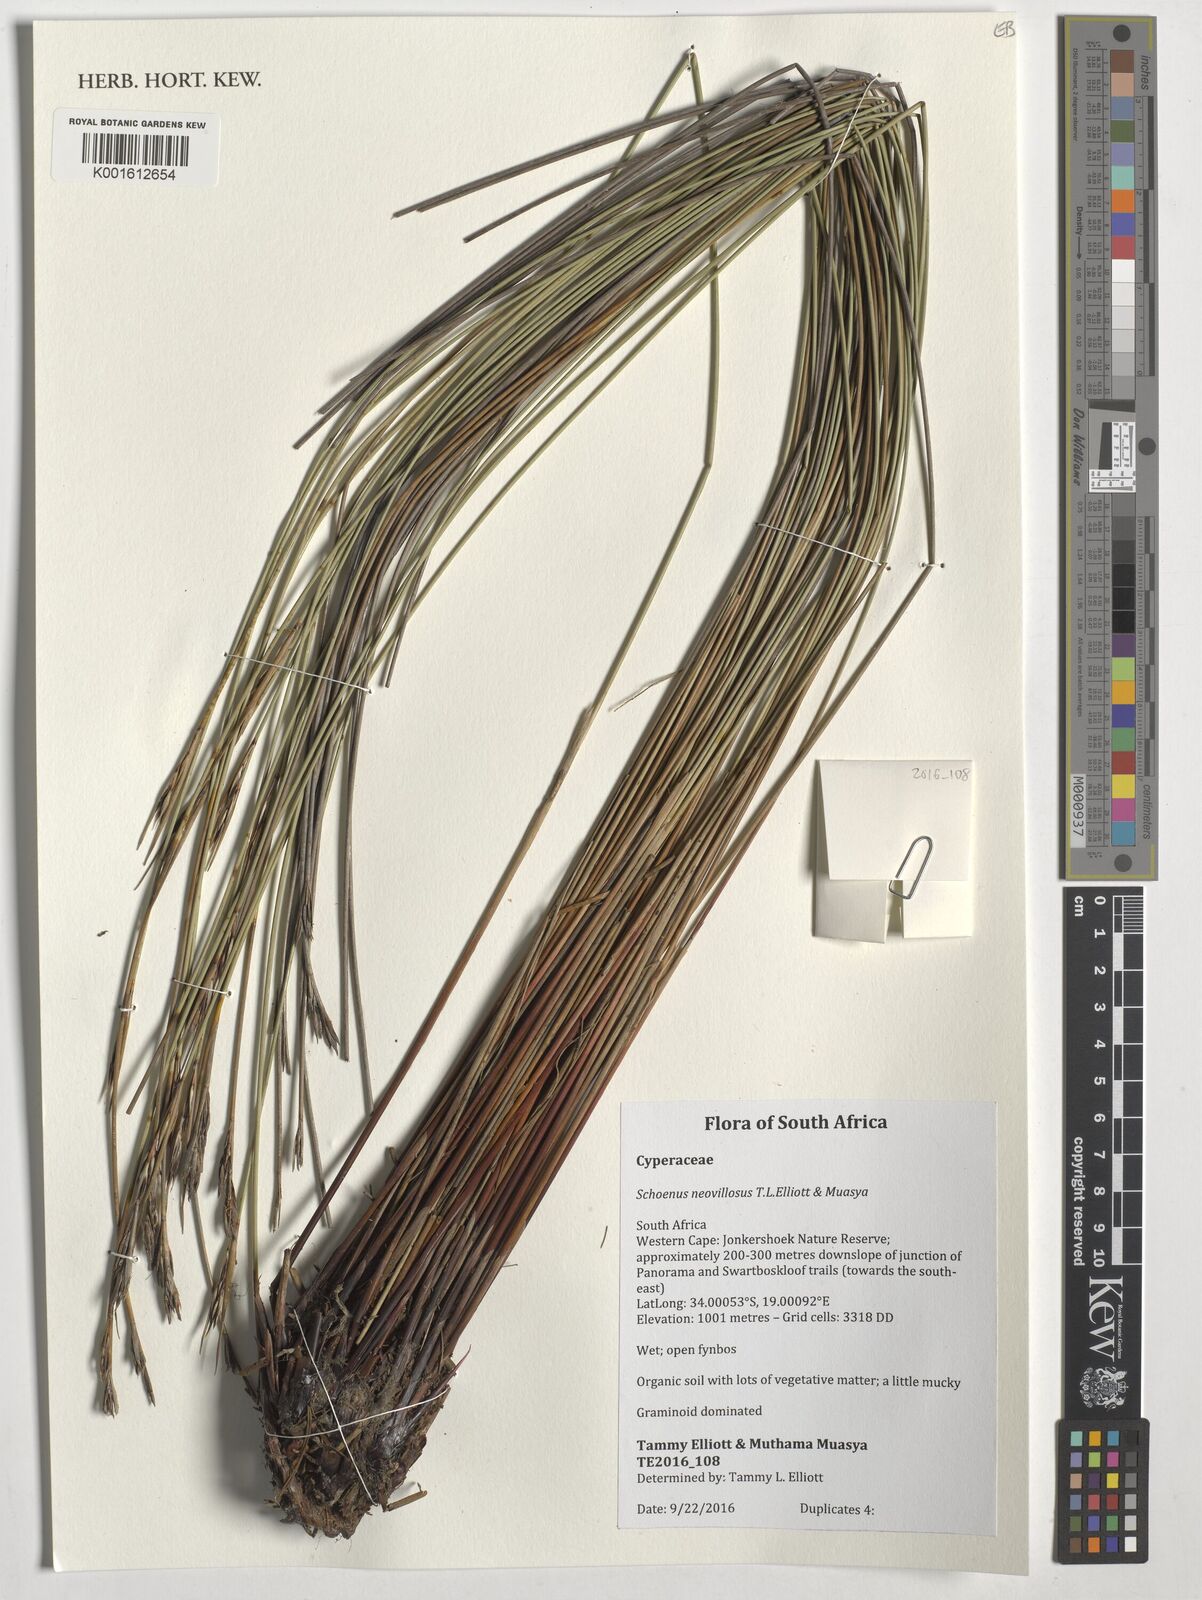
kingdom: Plantae
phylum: Tracheophyta
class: Liliopsida
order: Poales
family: Cyperaceae
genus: Schoenus
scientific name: Schoenus neovillosus
